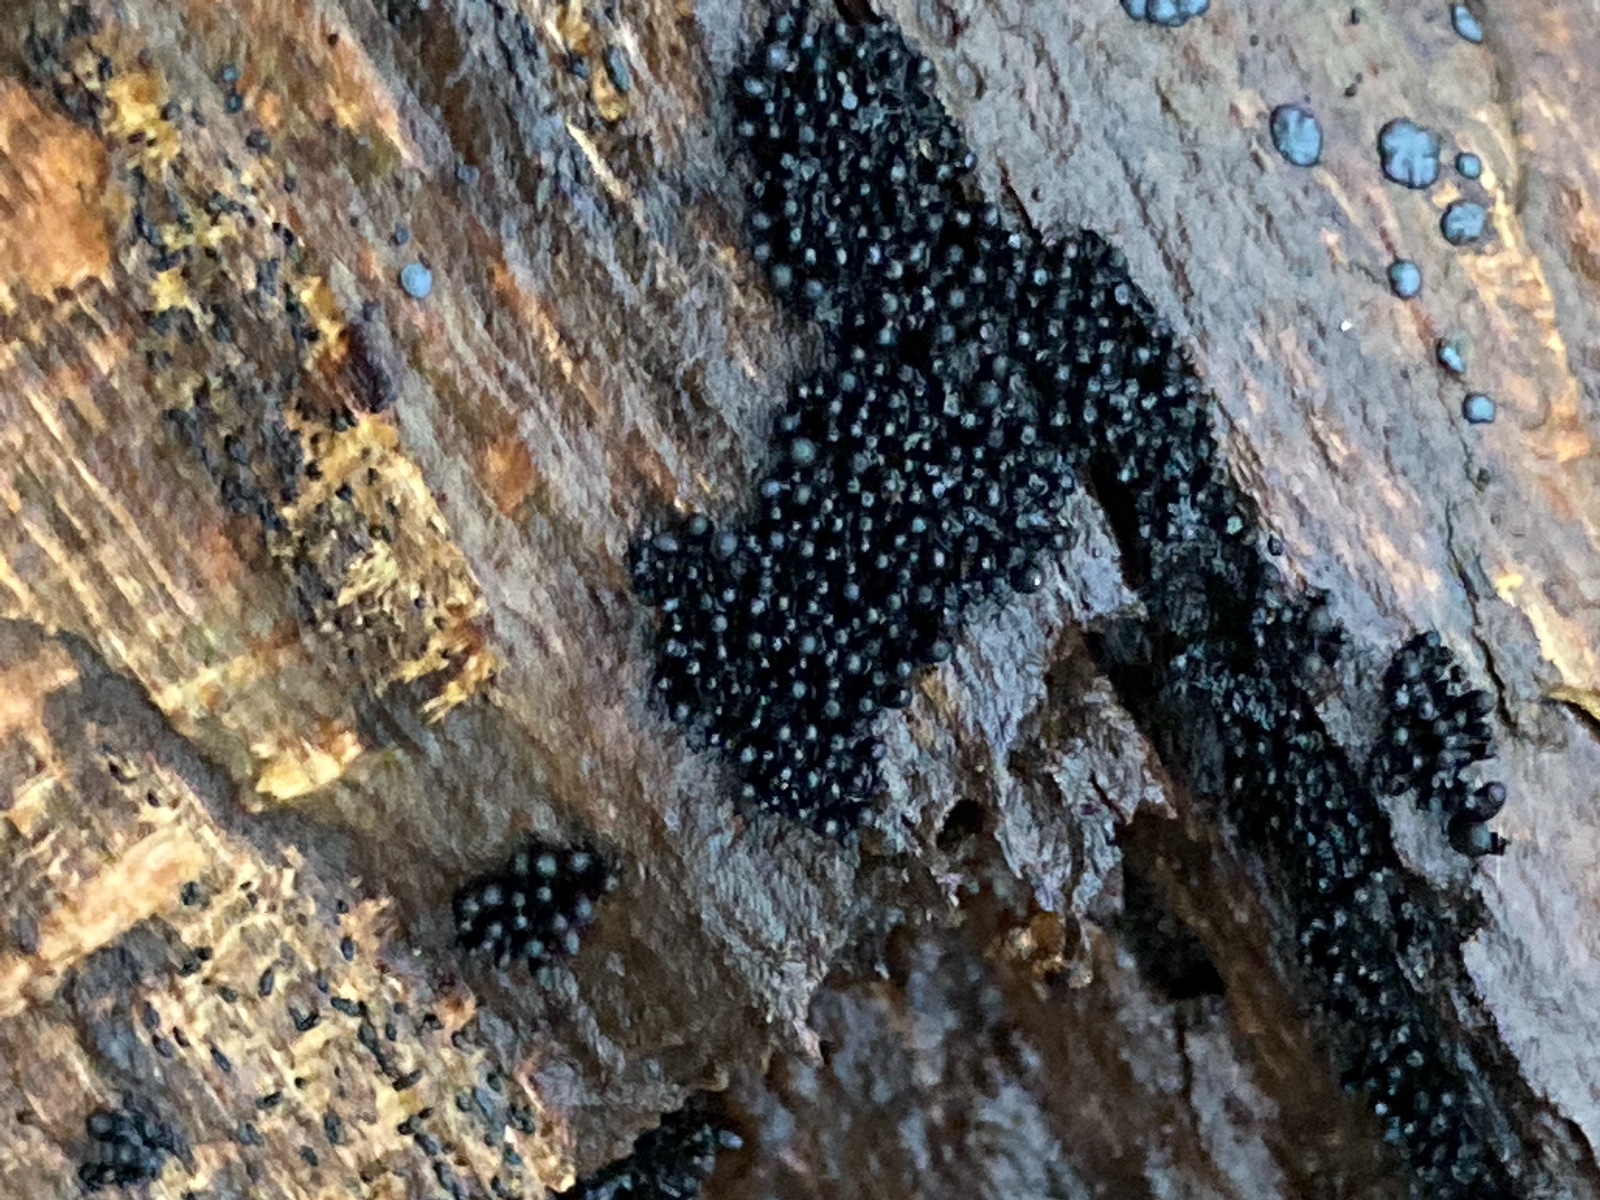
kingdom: Fungi
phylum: Ascomycota
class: Sordariomycetes
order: Sordariales
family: Bombardiaceae
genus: Bombardia
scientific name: Bombardia bombarda
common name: lædersæk-kernesvamp
